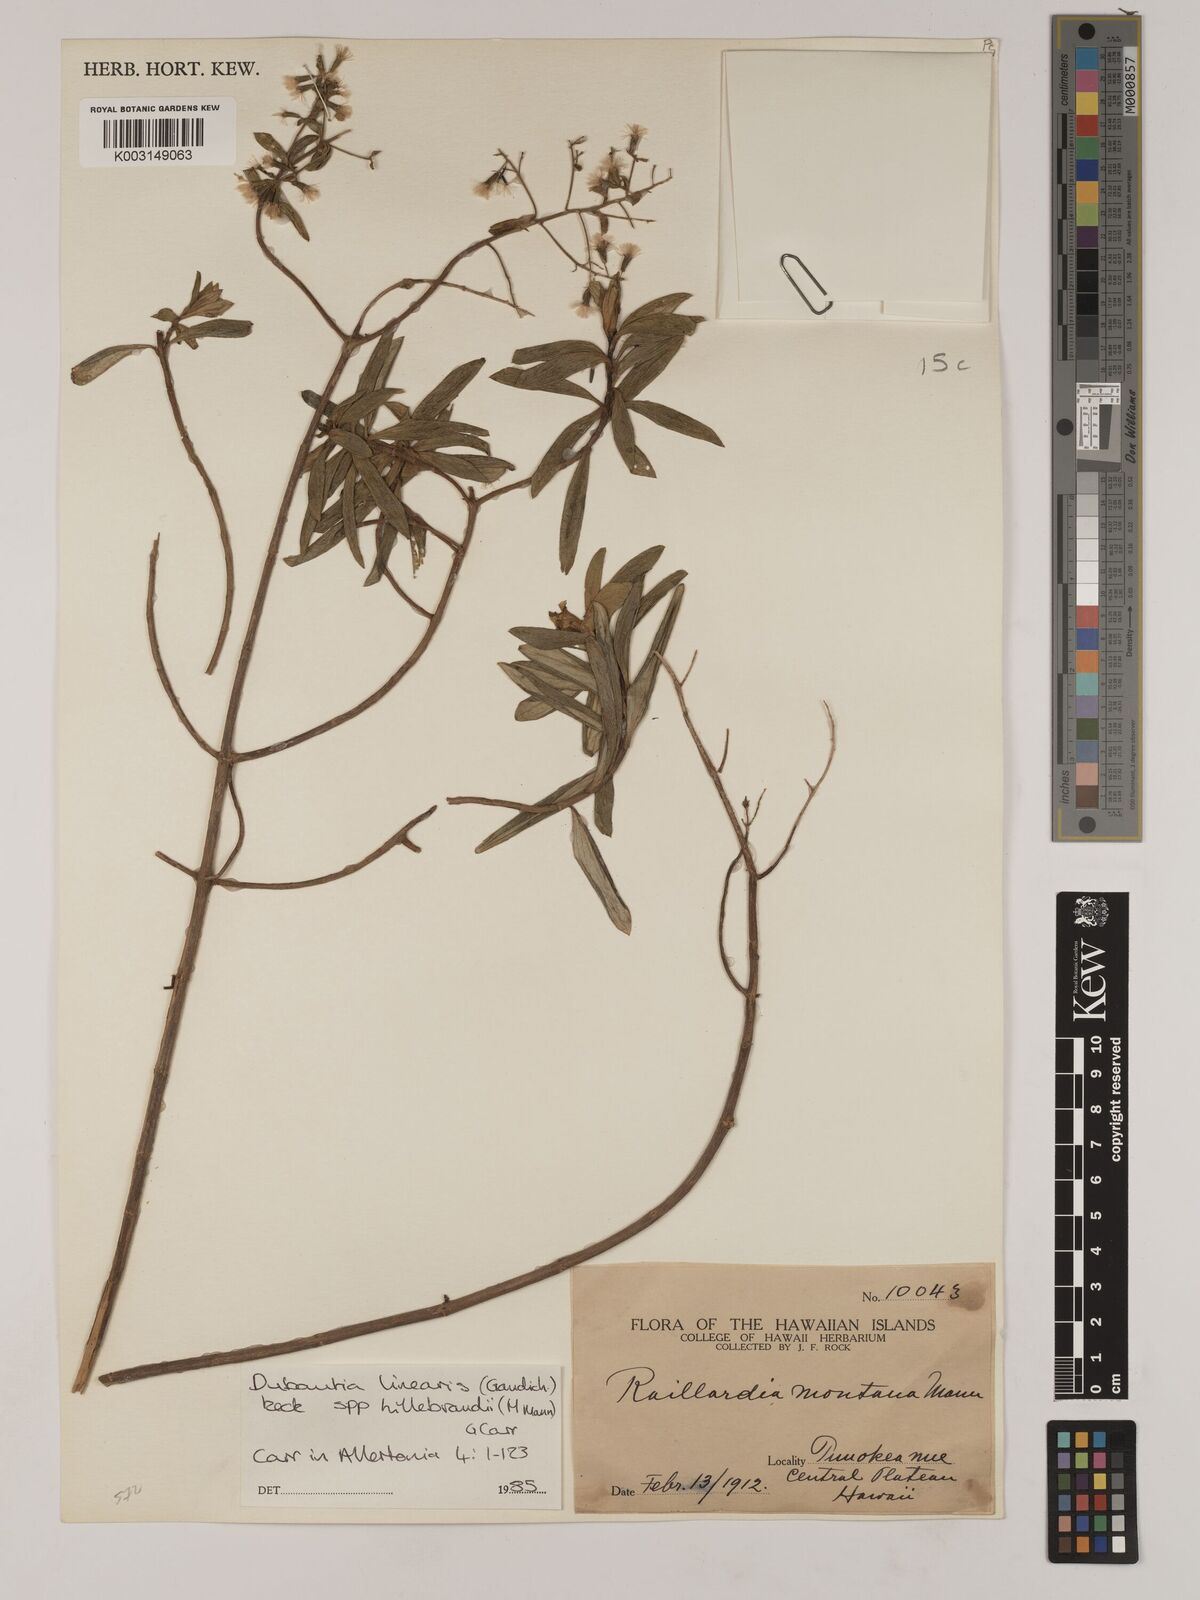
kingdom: Plantae
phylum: Tracheophyta
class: Magnoliopsida
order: Asterales
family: Asteraceae
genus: Dubautia
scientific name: Dubautia linearis
